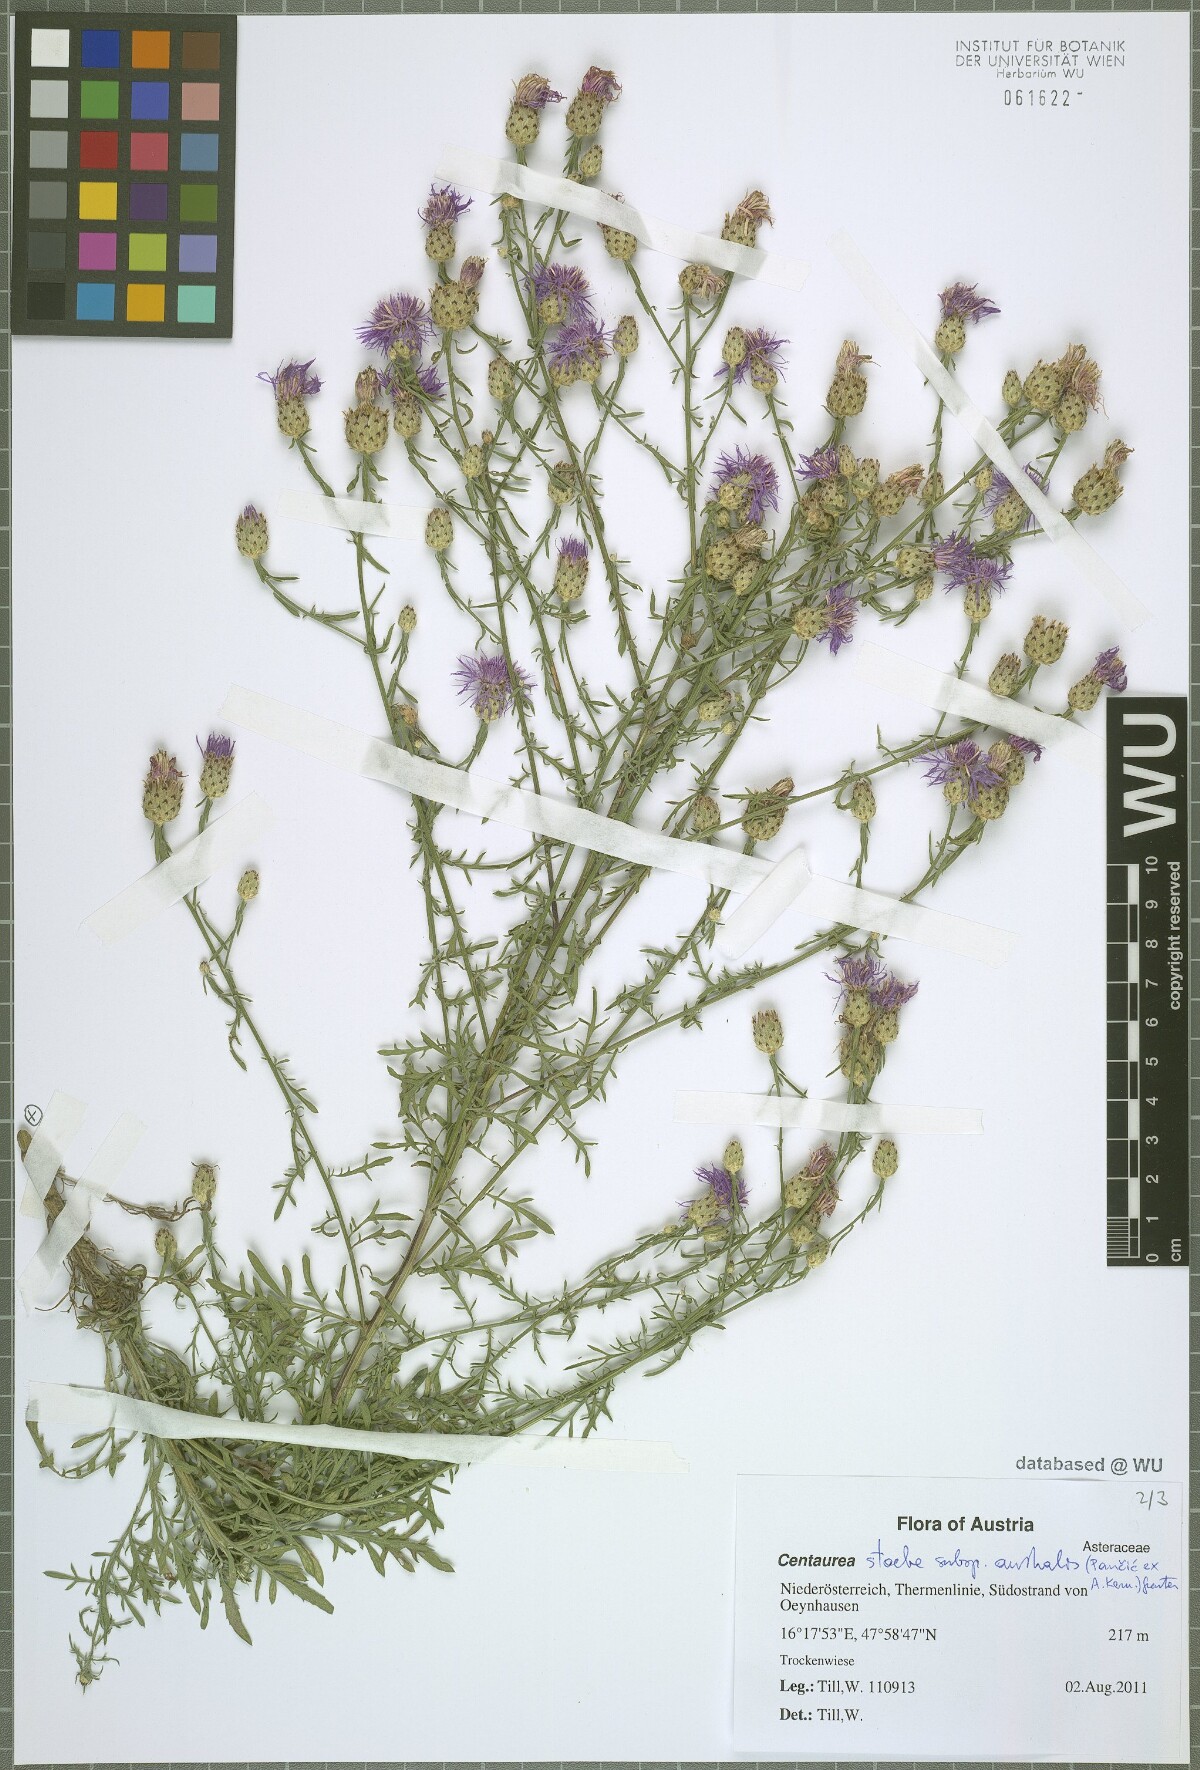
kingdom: Plantae
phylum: Tracheophyta
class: Magnoliopsida
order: Asterales
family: Asteraceae
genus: Centaurea
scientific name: Centaurea australis
